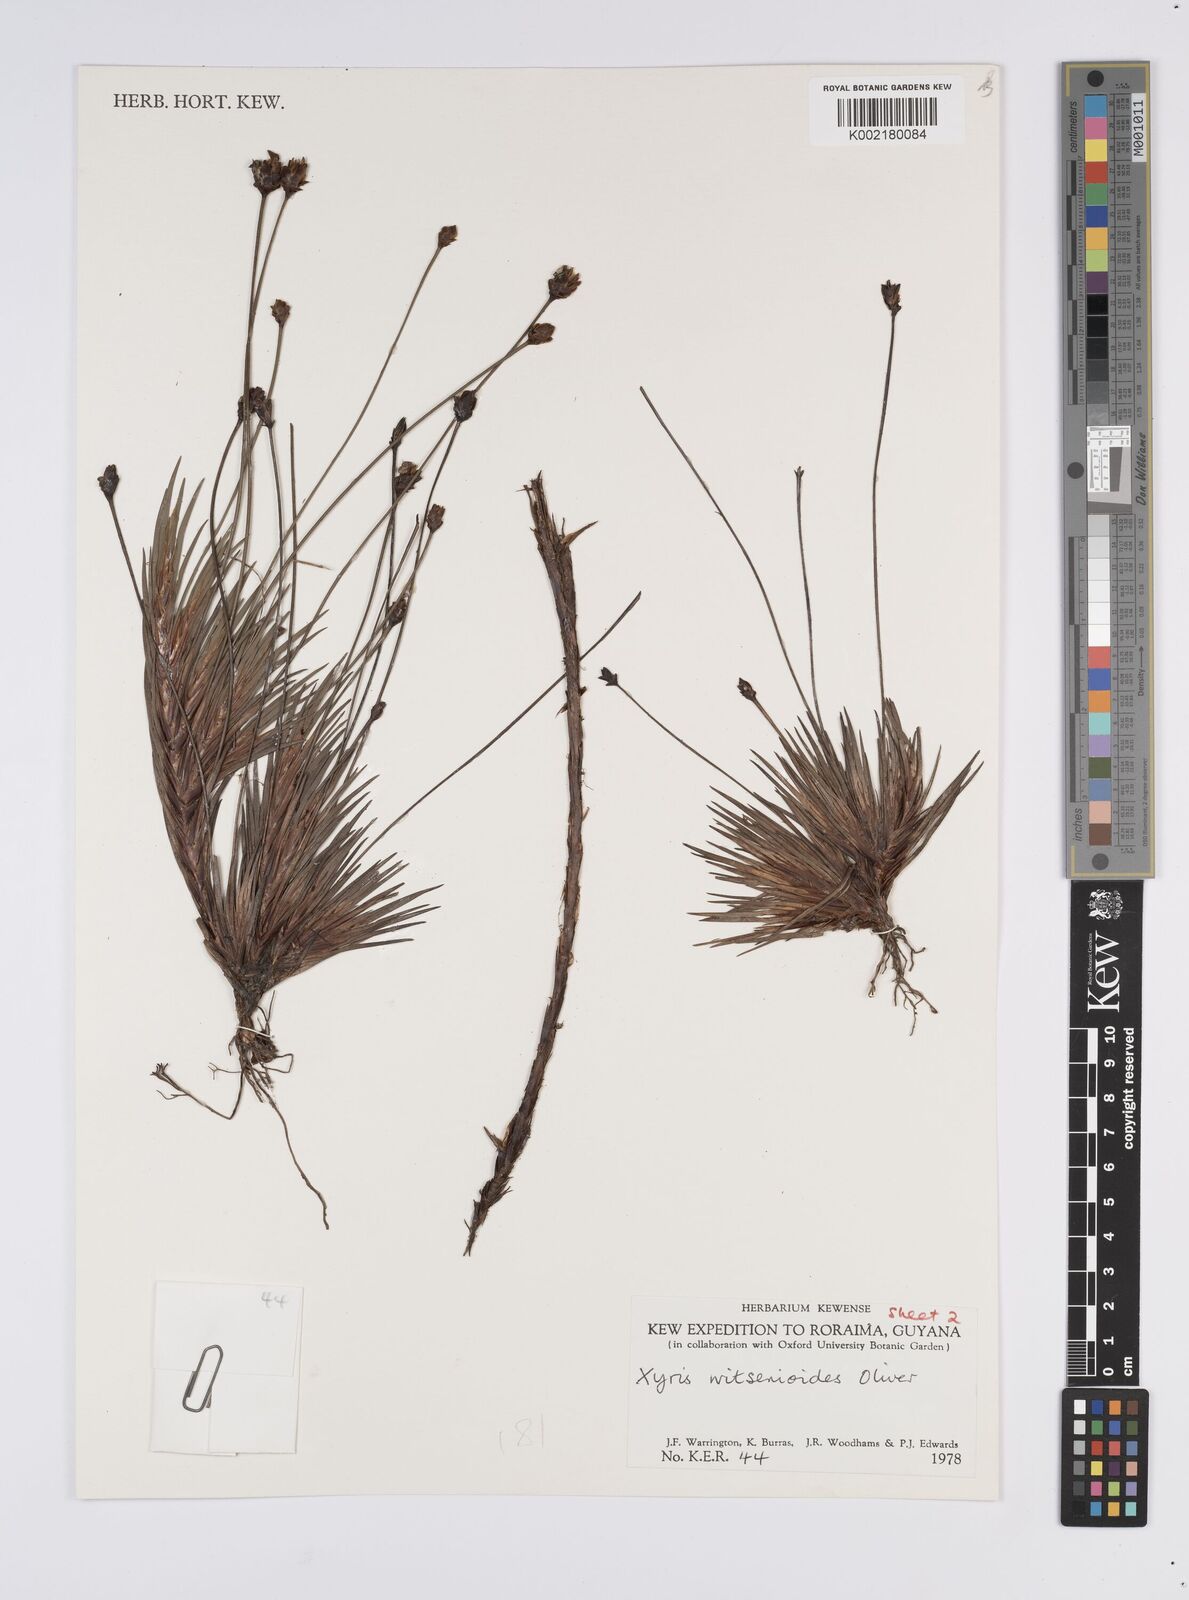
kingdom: Plantae
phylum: Tracheophyta
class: Liliopsida
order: Poales
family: Xyridaceae
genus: Xyris
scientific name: Xyris witsenioides
